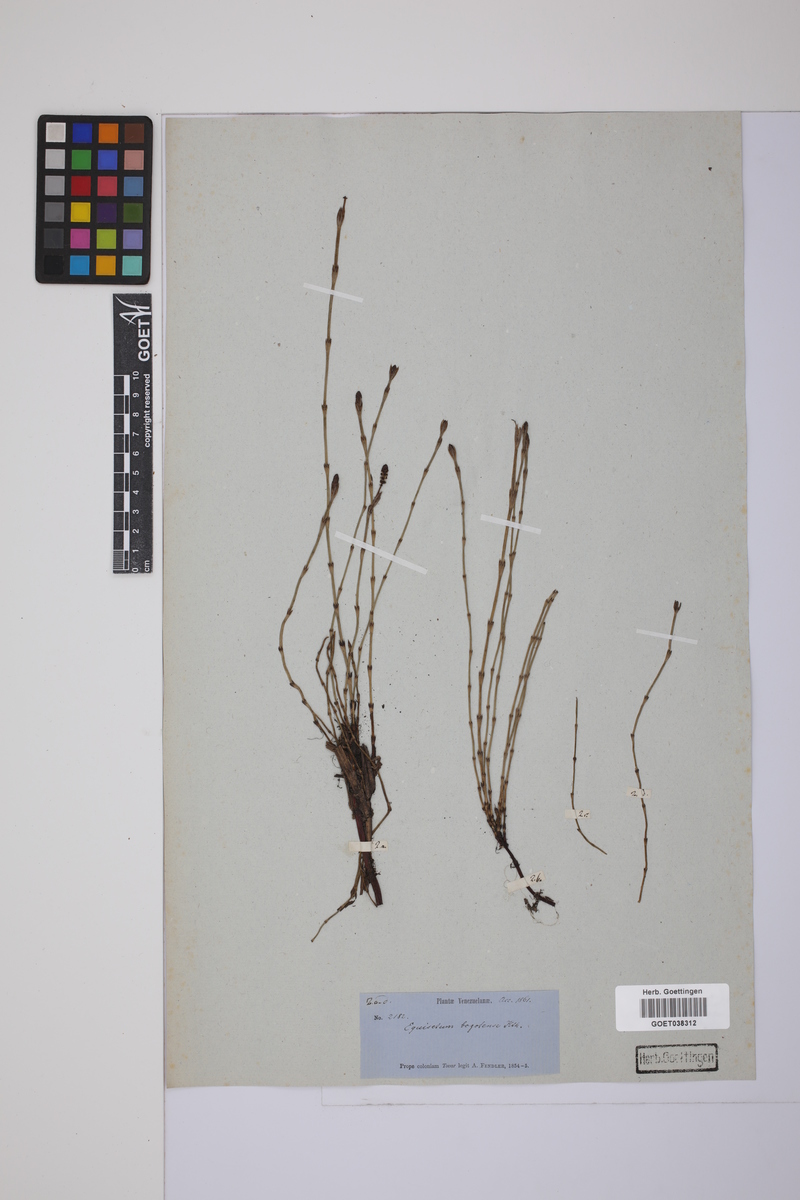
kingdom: Plantae
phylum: Tracheophyta
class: Polypodiopsida
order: Equisetales
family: Equisetaceae
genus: Equisetum
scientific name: Equisetum bogotense
